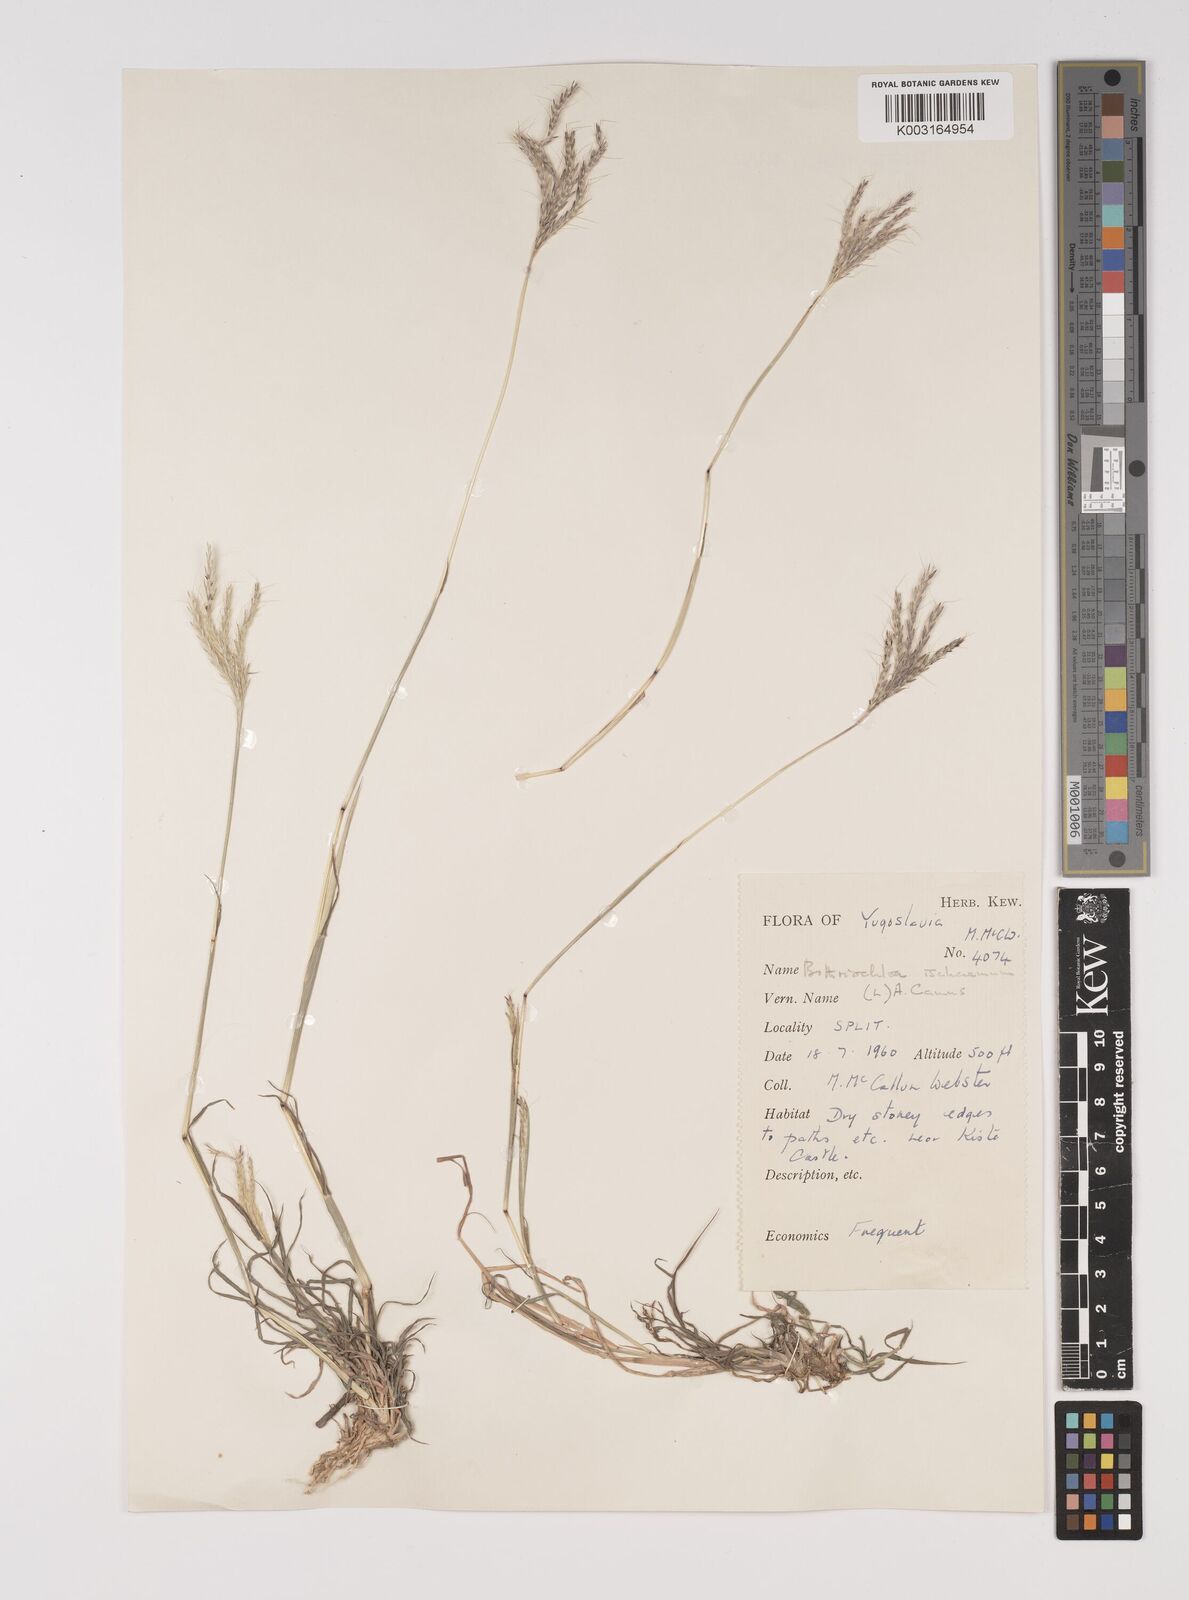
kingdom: Plantae
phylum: Tracheophyta
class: Liliopsida
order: Poales
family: Poaceae
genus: Bothriochloa
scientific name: Bothriochloa ischaemum
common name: Yellow bluestem
